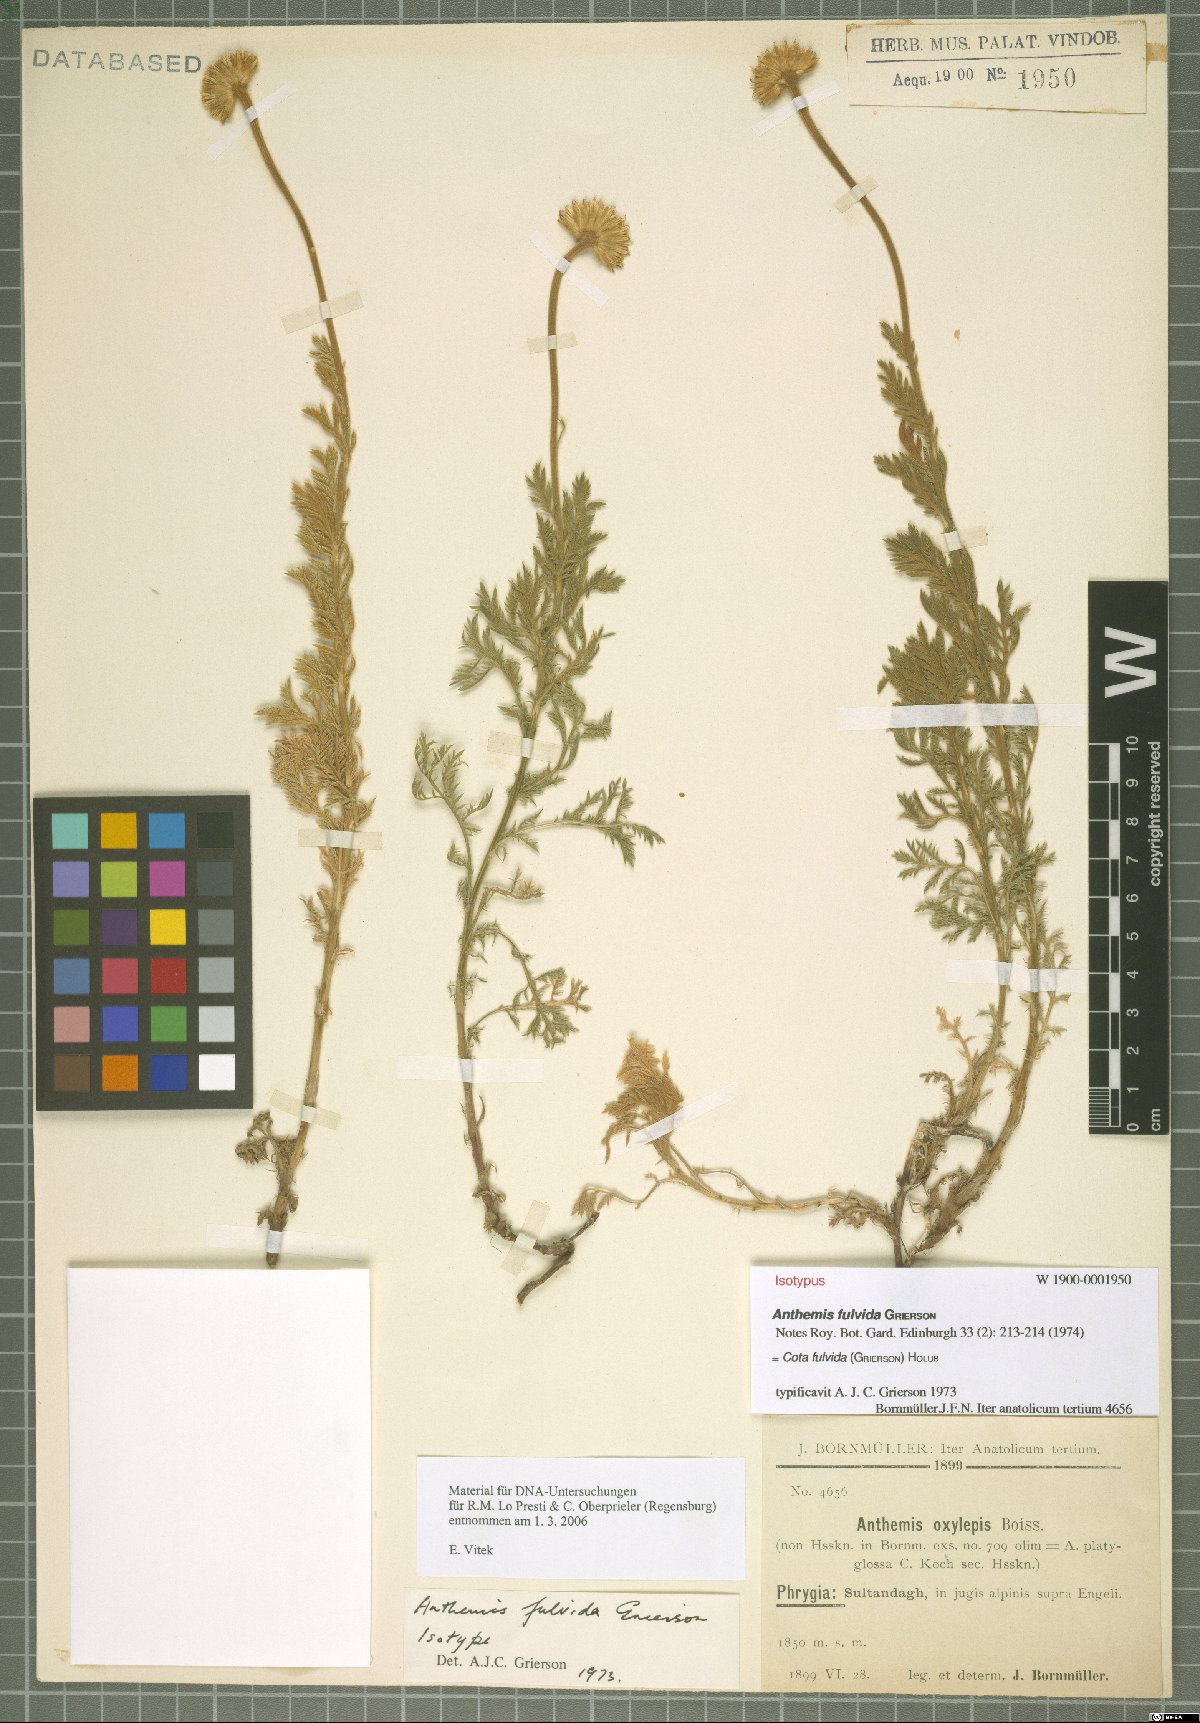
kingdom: Plantae
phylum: Tracheophyta
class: Magnoliopsida
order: Asterales
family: Asteraceae
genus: Cota
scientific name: Cota fulvida
